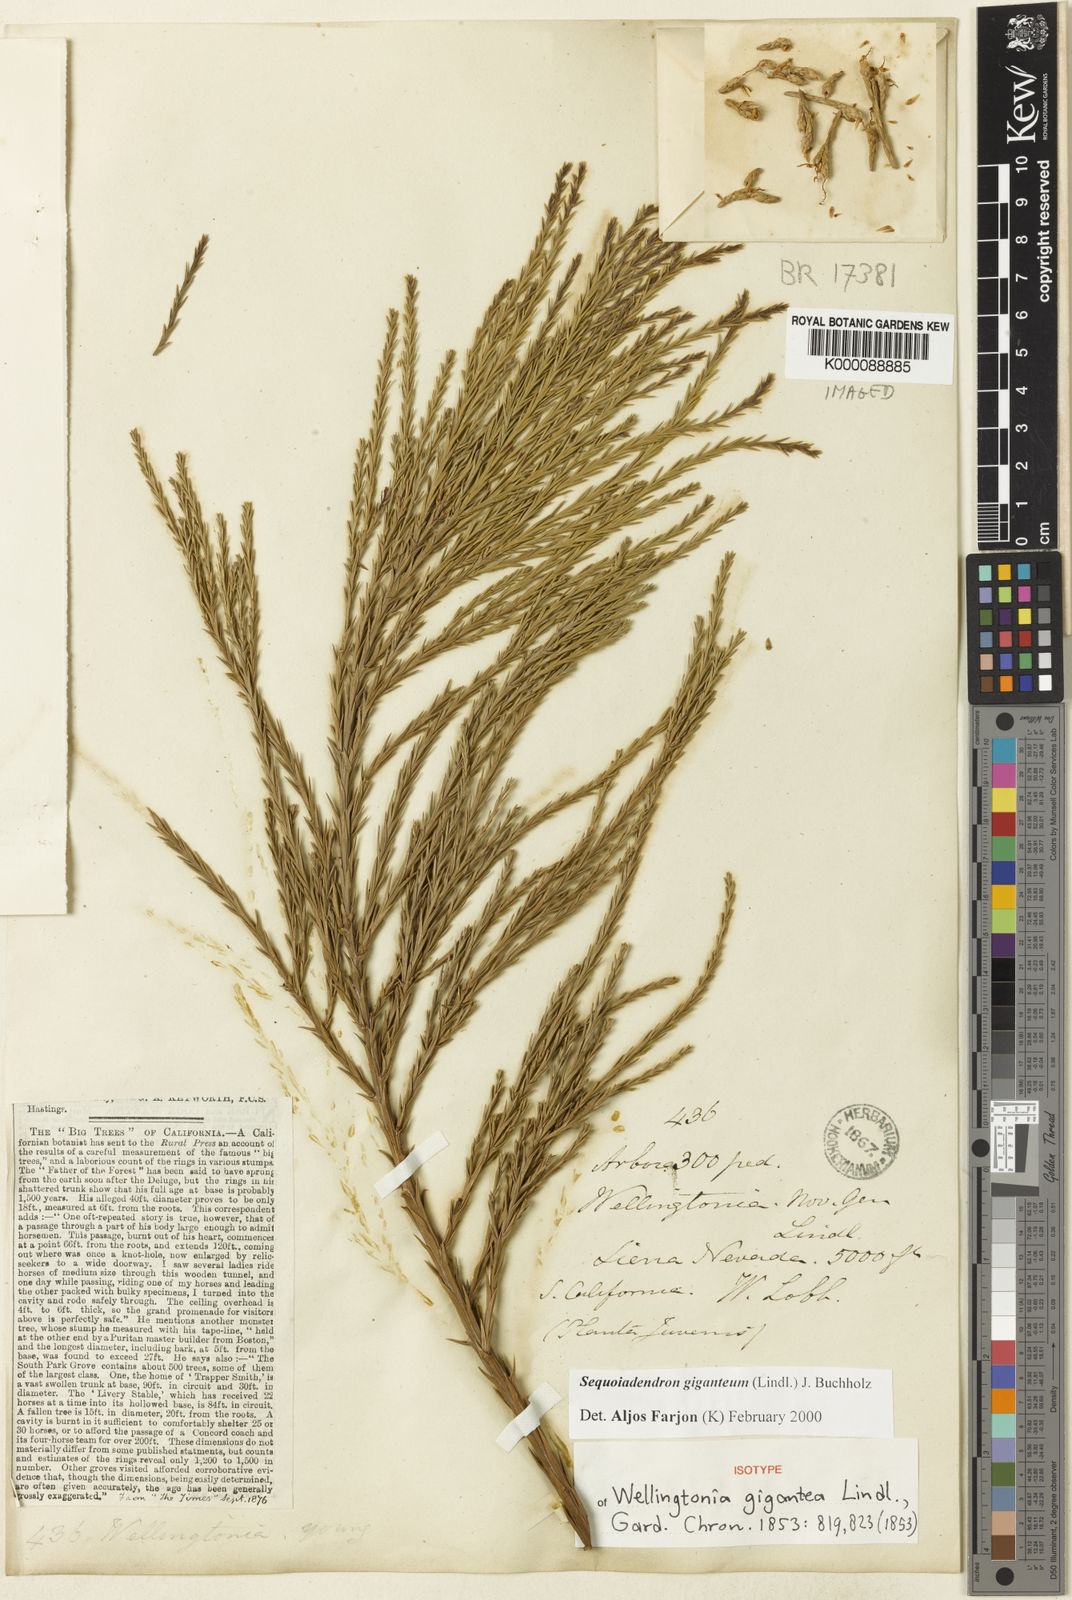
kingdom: Plantae
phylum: Tracheophyta
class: Pinopsida
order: Pinales
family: Cupressaceae
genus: Sequoiadendron
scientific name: Sequoiadendron giganteum
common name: Wellingtonia
